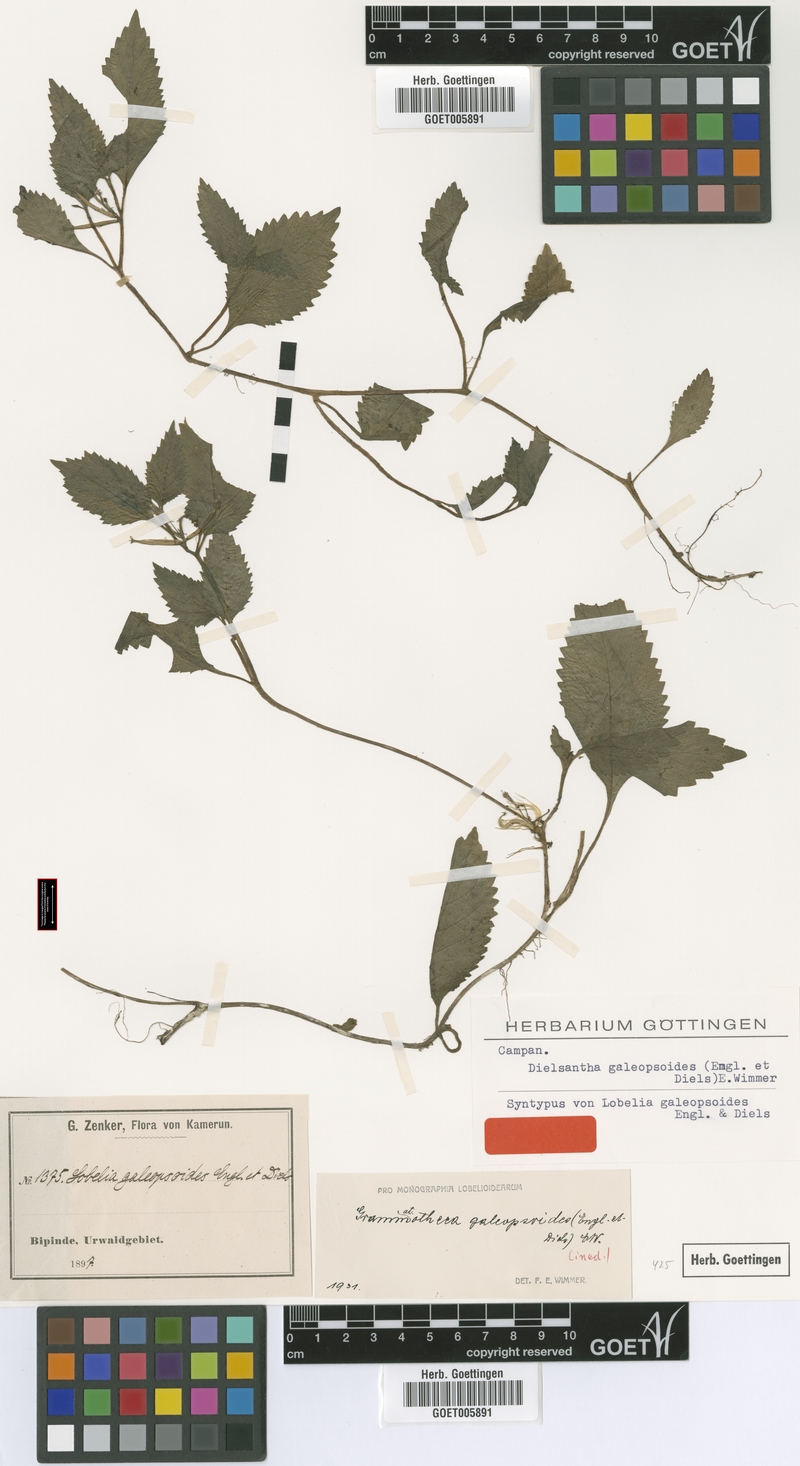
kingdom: Plantae
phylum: Tracheophyta
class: Magnoliopsida
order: Asterales
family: Campanulaceae
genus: Dielsantha
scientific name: Dielsantha galeopsoides
